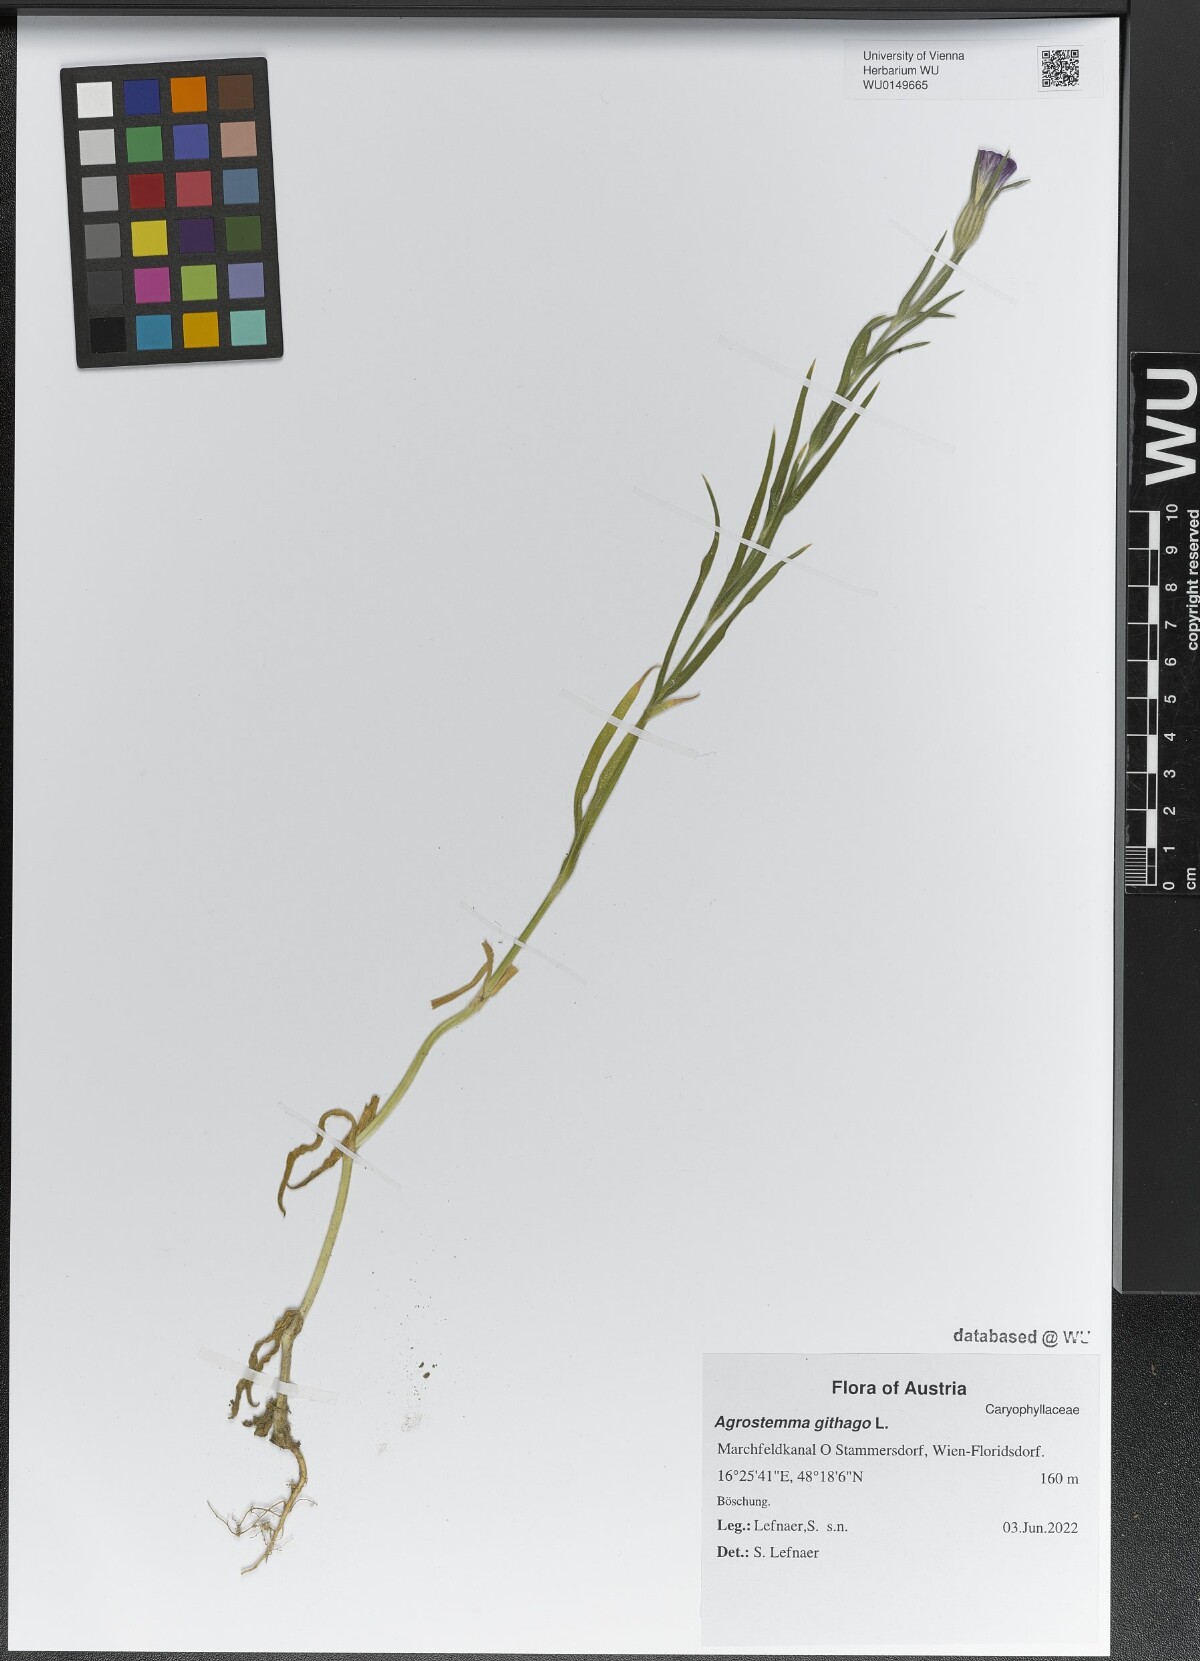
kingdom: Plantae
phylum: Tracheophyta
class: Magnoliopsida
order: Caryophyllales
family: Caryophyllaceae
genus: Agrostemma
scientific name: Agrostemma githago
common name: Common corncockle
